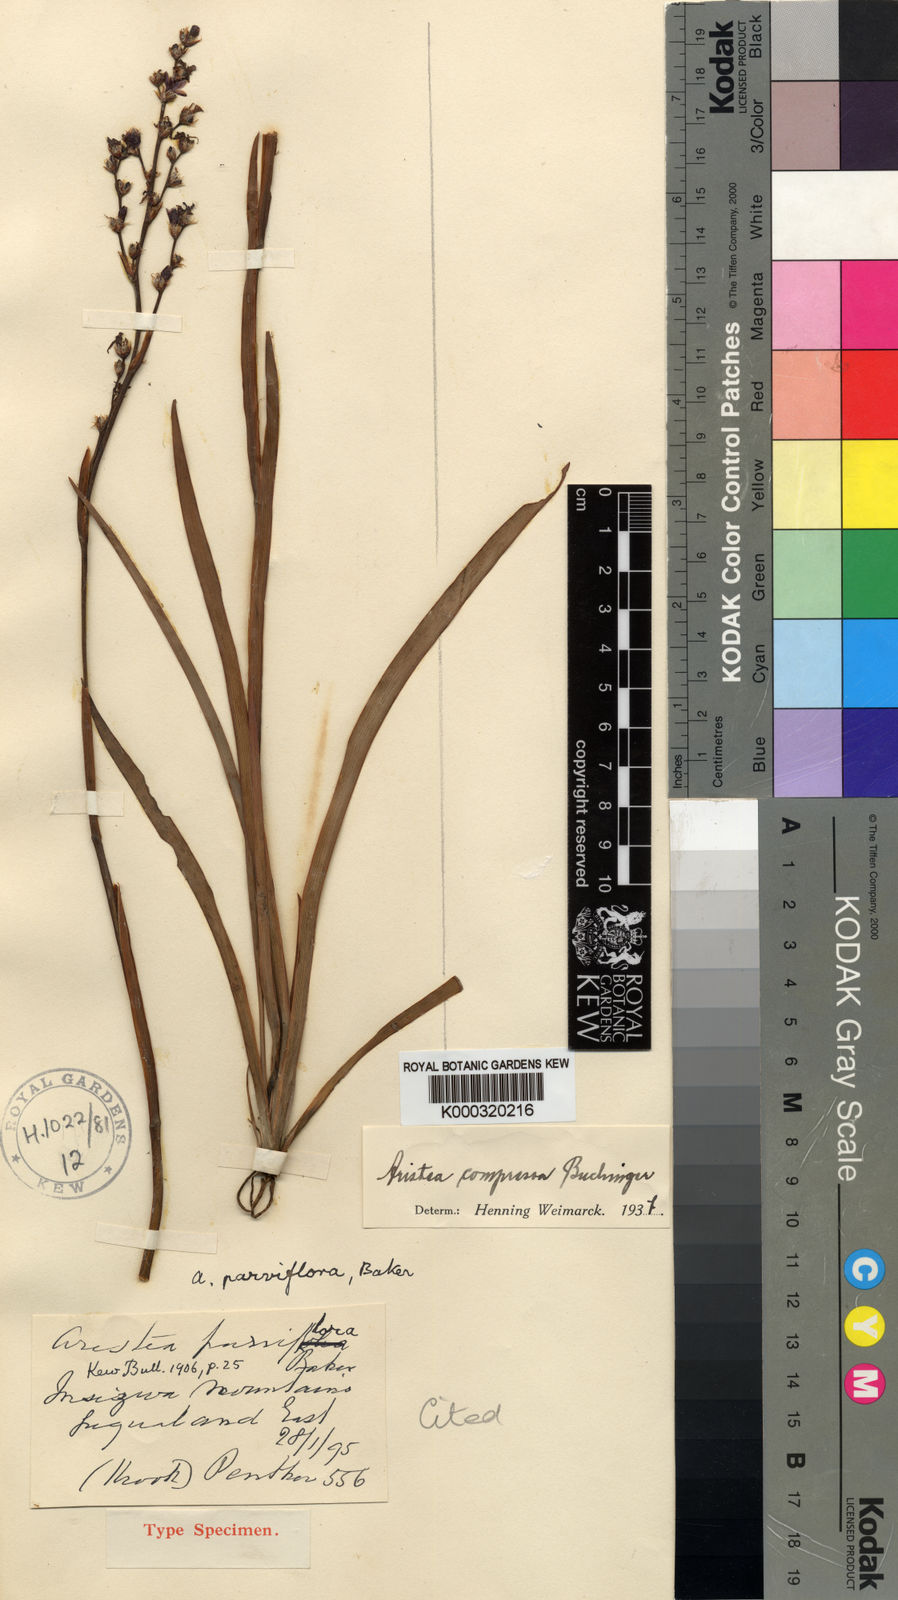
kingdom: Plantae
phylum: Tracheophyta
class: Liliopsida
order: Asparagales
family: Iridaceae
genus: Aristea
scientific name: Aristea compressa
